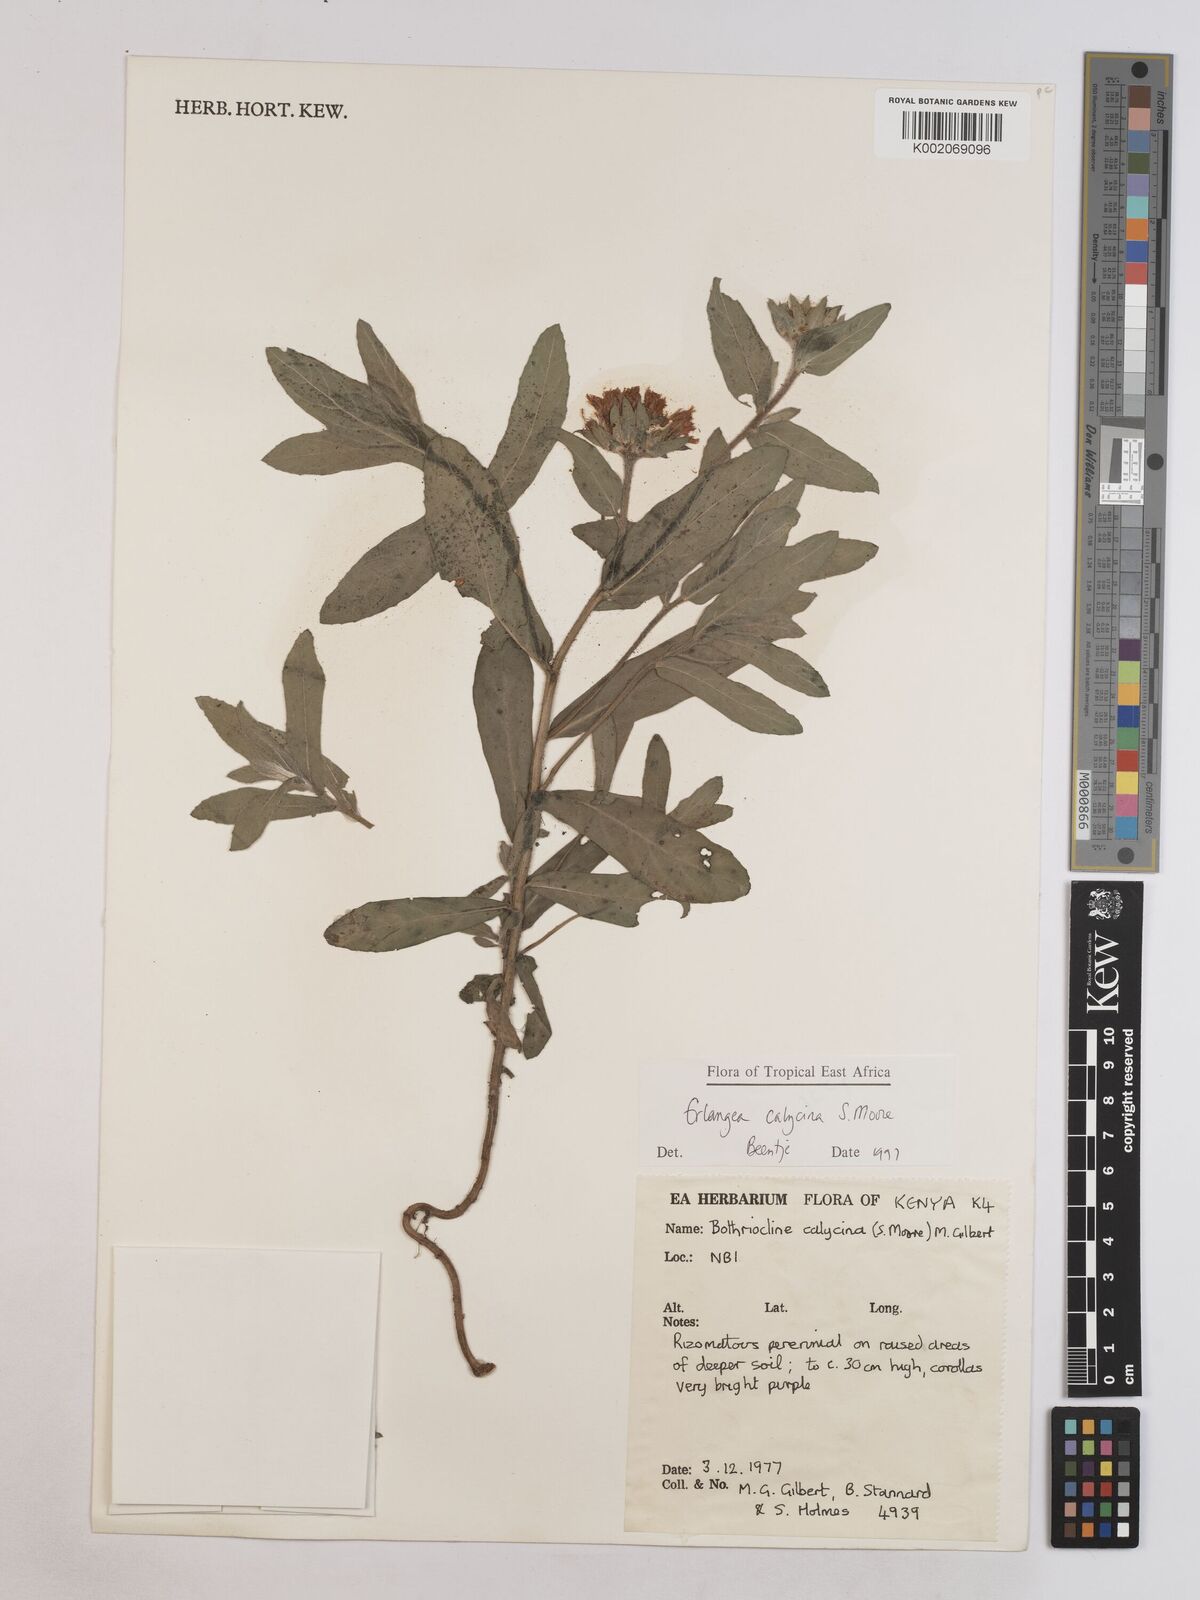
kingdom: Plantae
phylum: Tracheophyta
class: Magnoliopsida
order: Asterales
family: Asteraceae
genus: Erlangea
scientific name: Erlangea calycina
